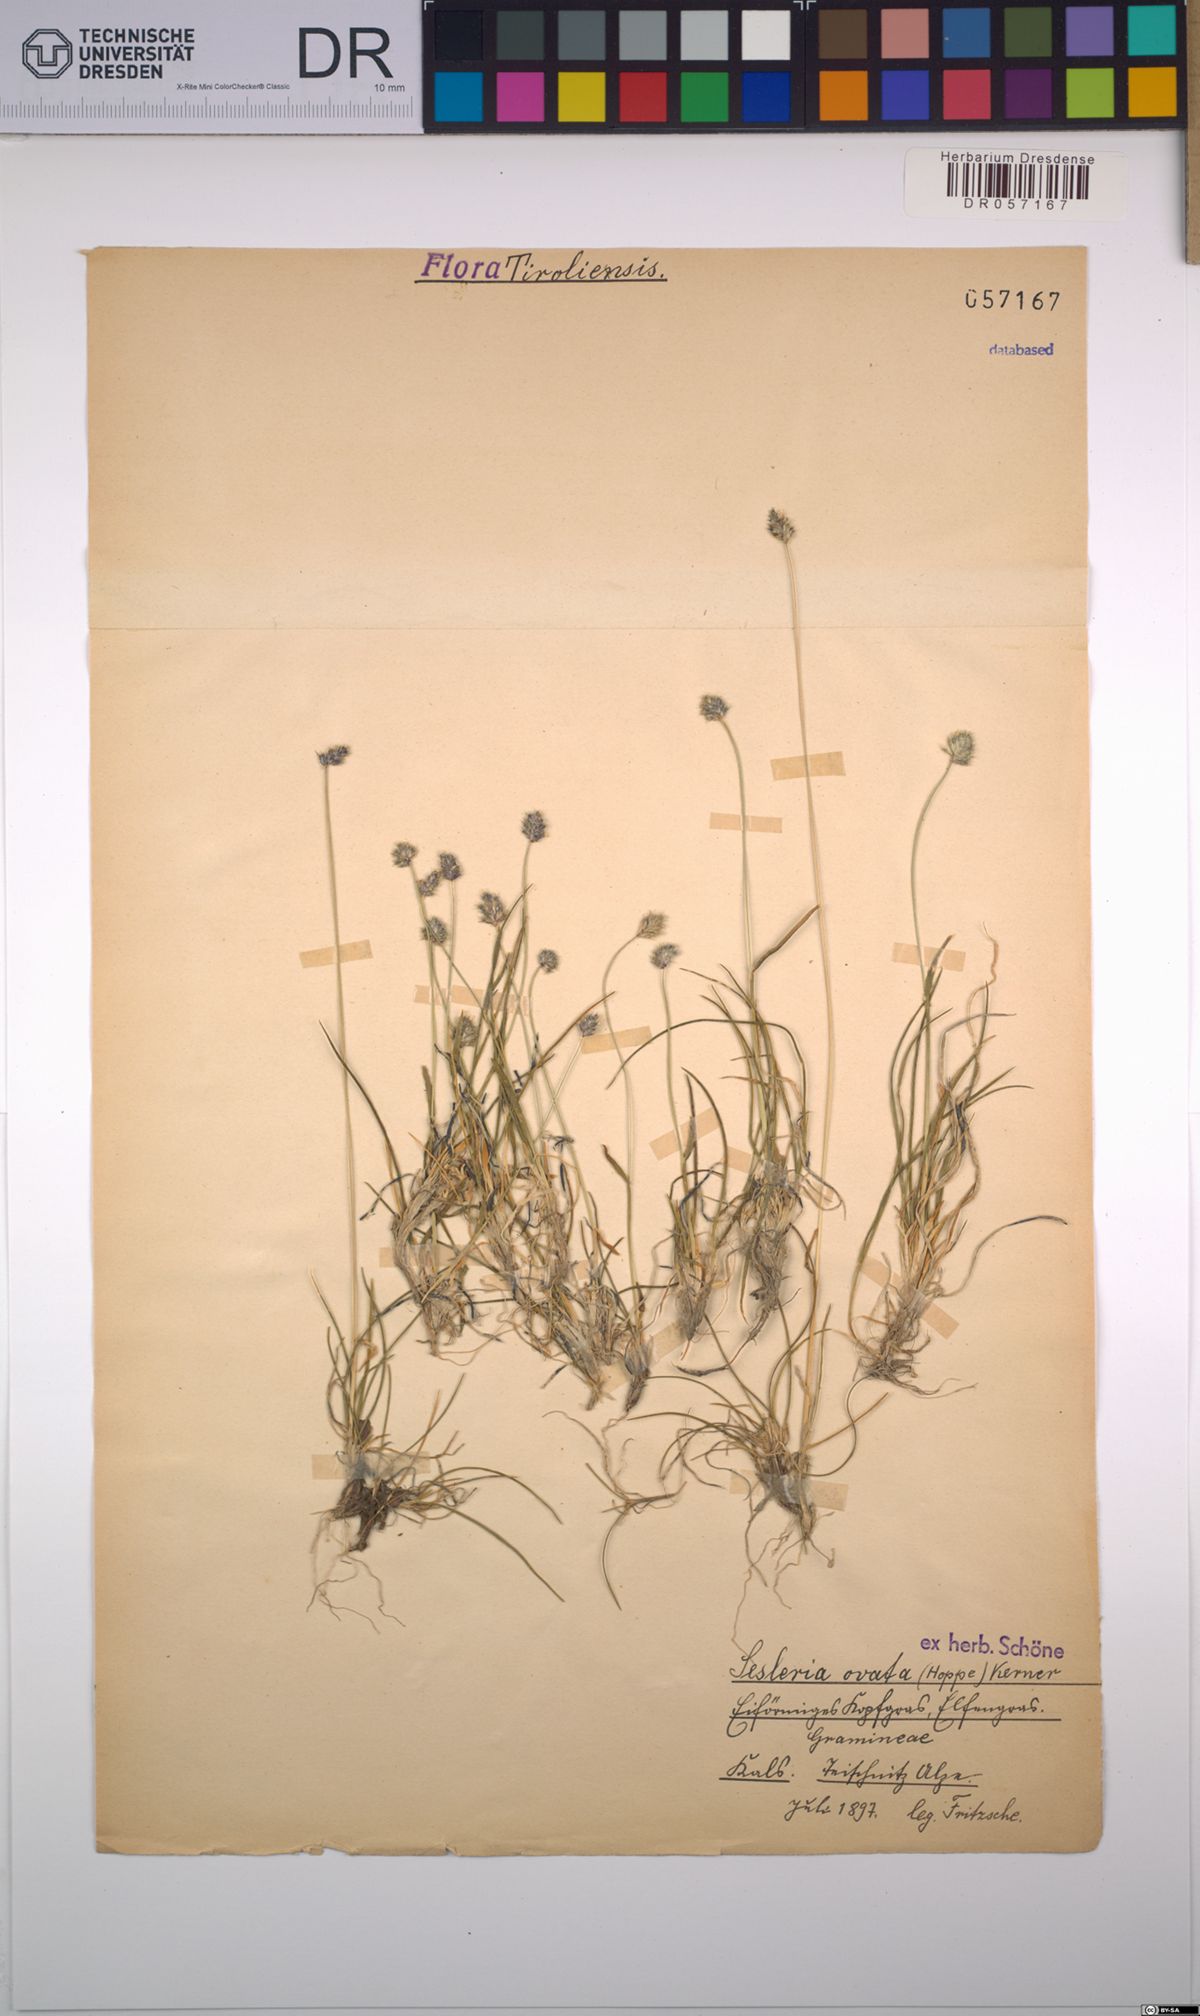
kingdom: Plantae
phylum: Tracheophyta
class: Liliopsida
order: Poales
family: Poaceae
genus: Psilathera
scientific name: Psilathera ovata
